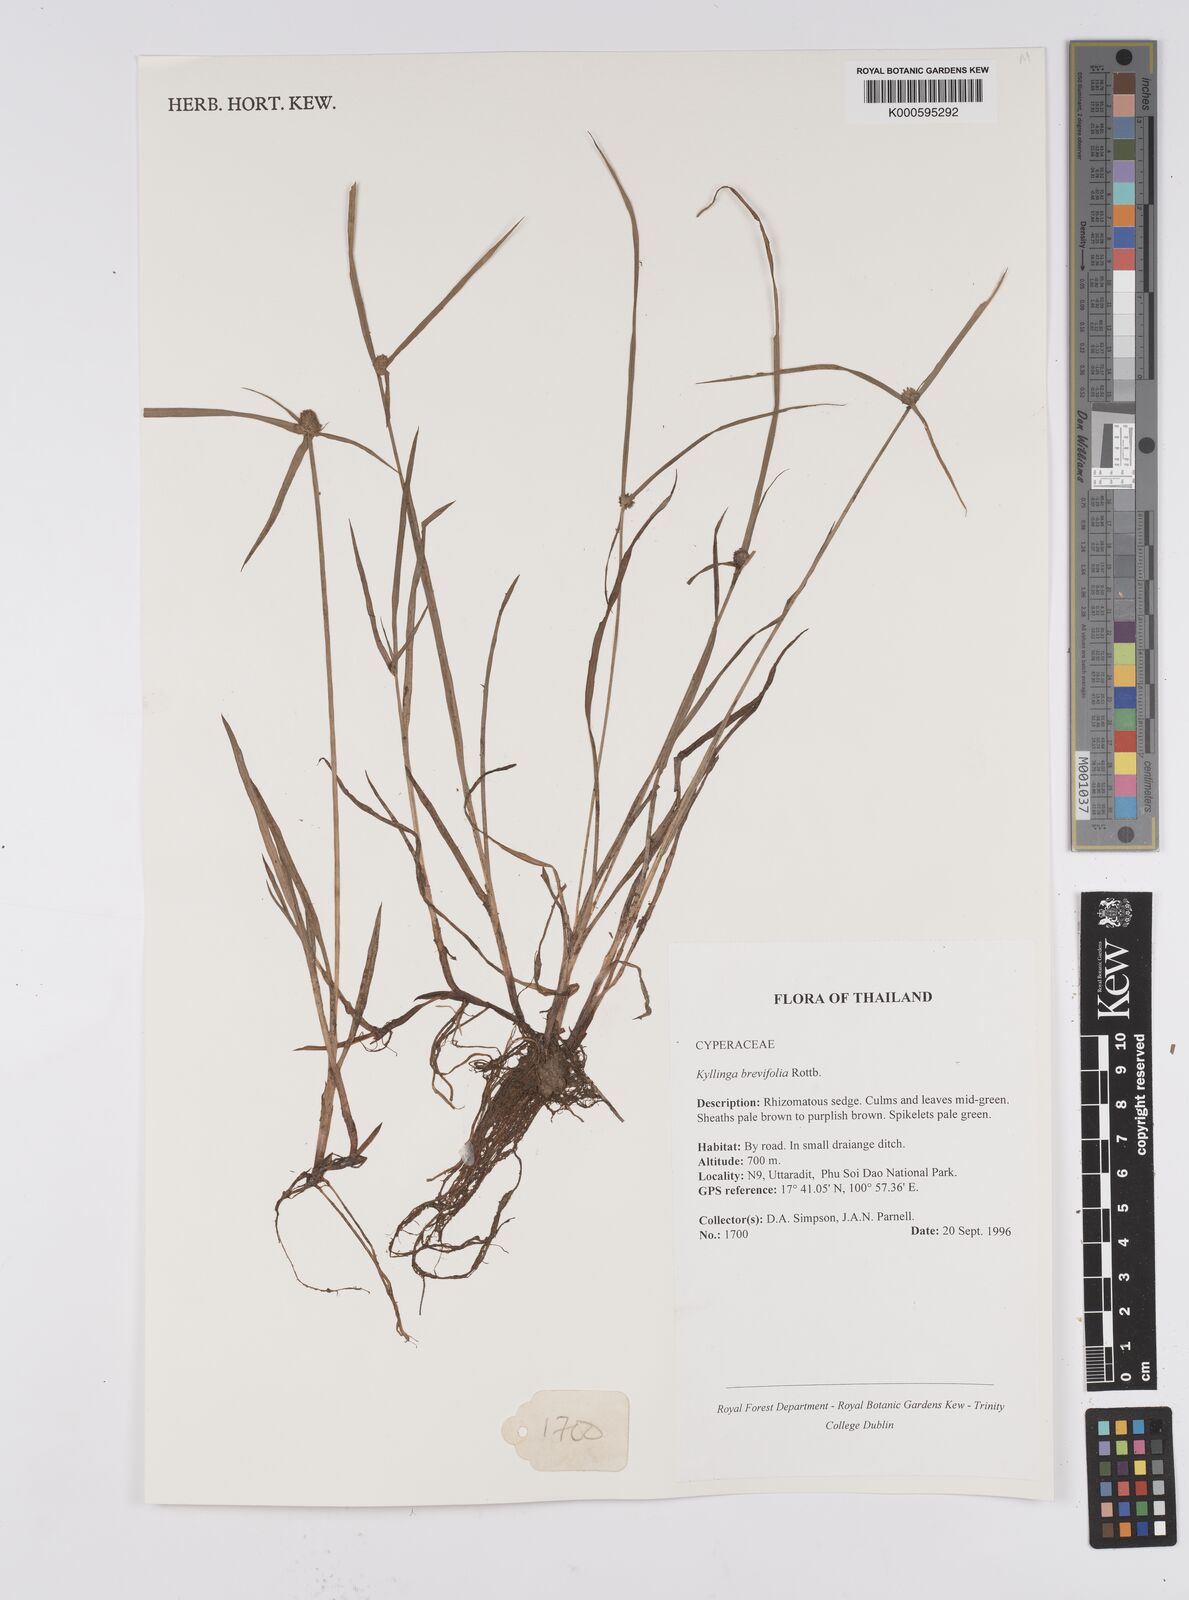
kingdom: Plantae
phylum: Tracheophyta
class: Liliopsida
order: Poales
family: Cyperaceae
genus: Cyperus
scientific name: Cyperus brevifolius
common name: Globe kyllinga
